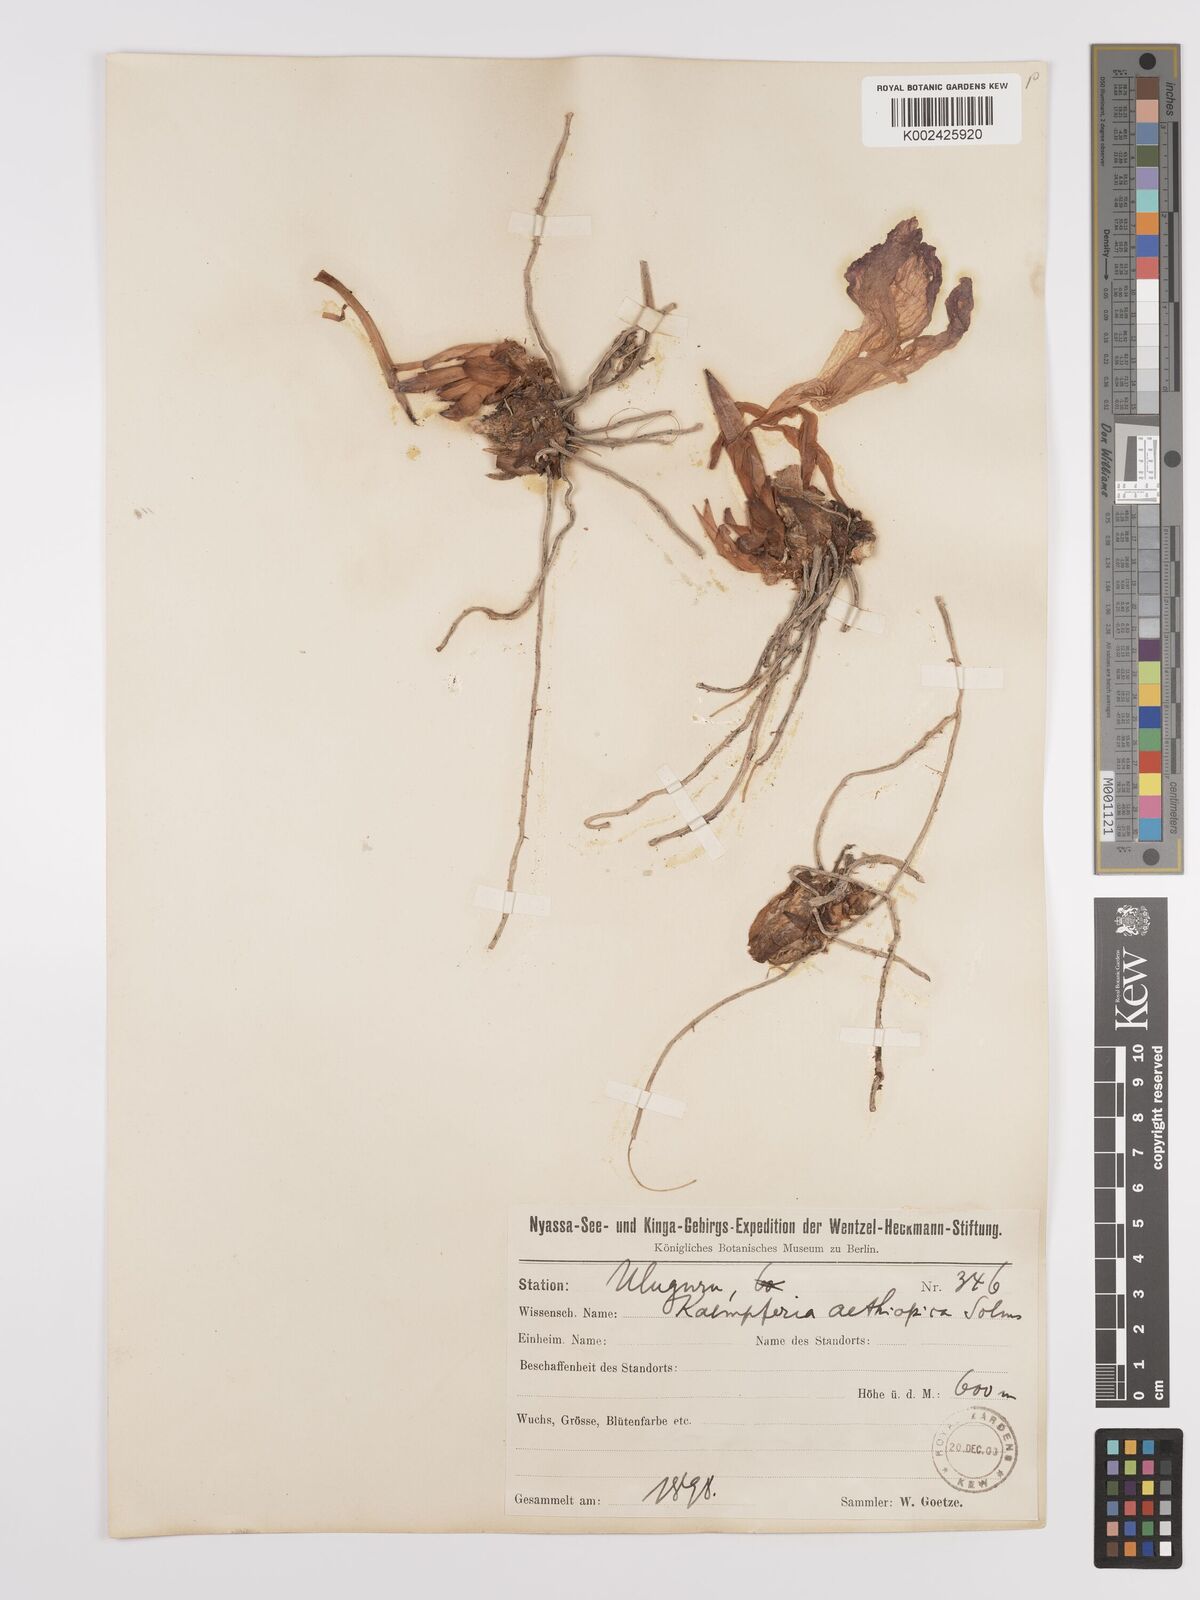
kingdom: Plantae
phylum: Tracheophyta
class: Liliopsida
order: Zingiberales
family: Zingiberaceae
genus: Siphonochilus
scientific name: Siphonochilus aethiopicus
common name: African-ginger
